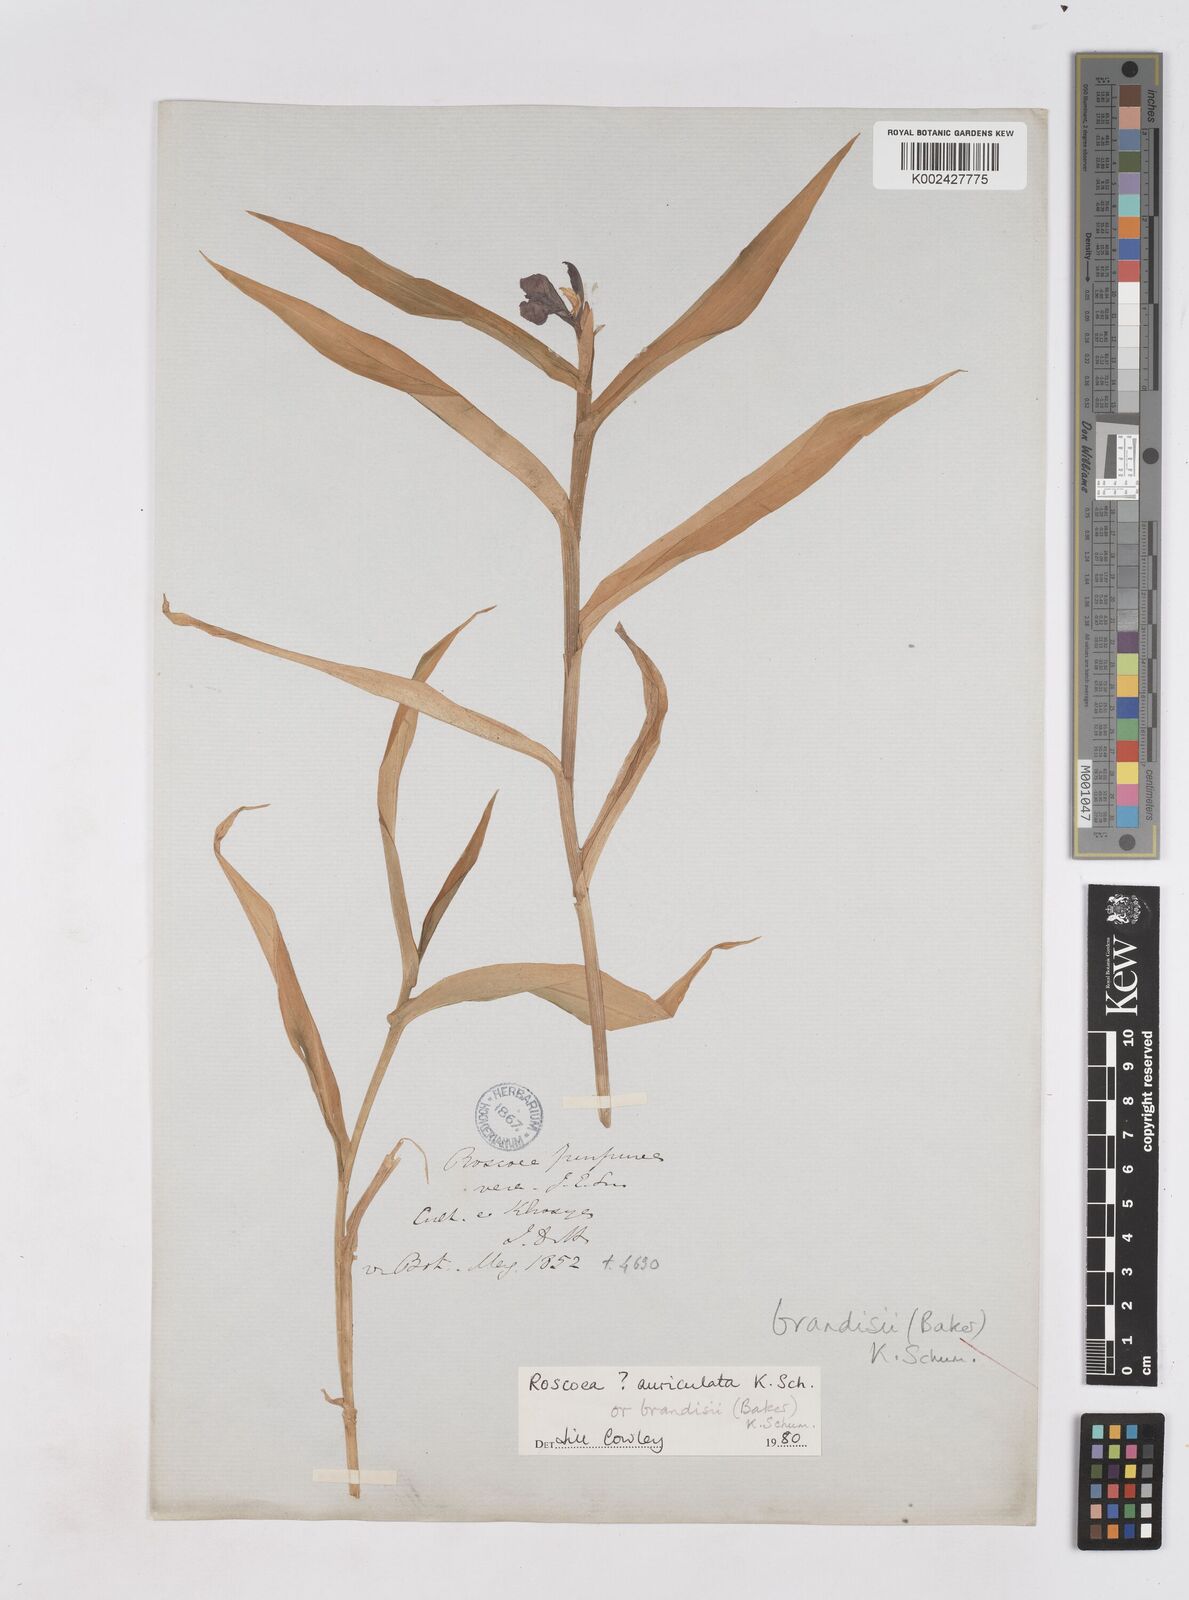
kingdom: Plantae
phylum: Tracheophyta
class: Liliopsida
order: Zingiberales
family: Zingiberaceae
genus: Roscoea
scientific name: Roscoea brandisii
